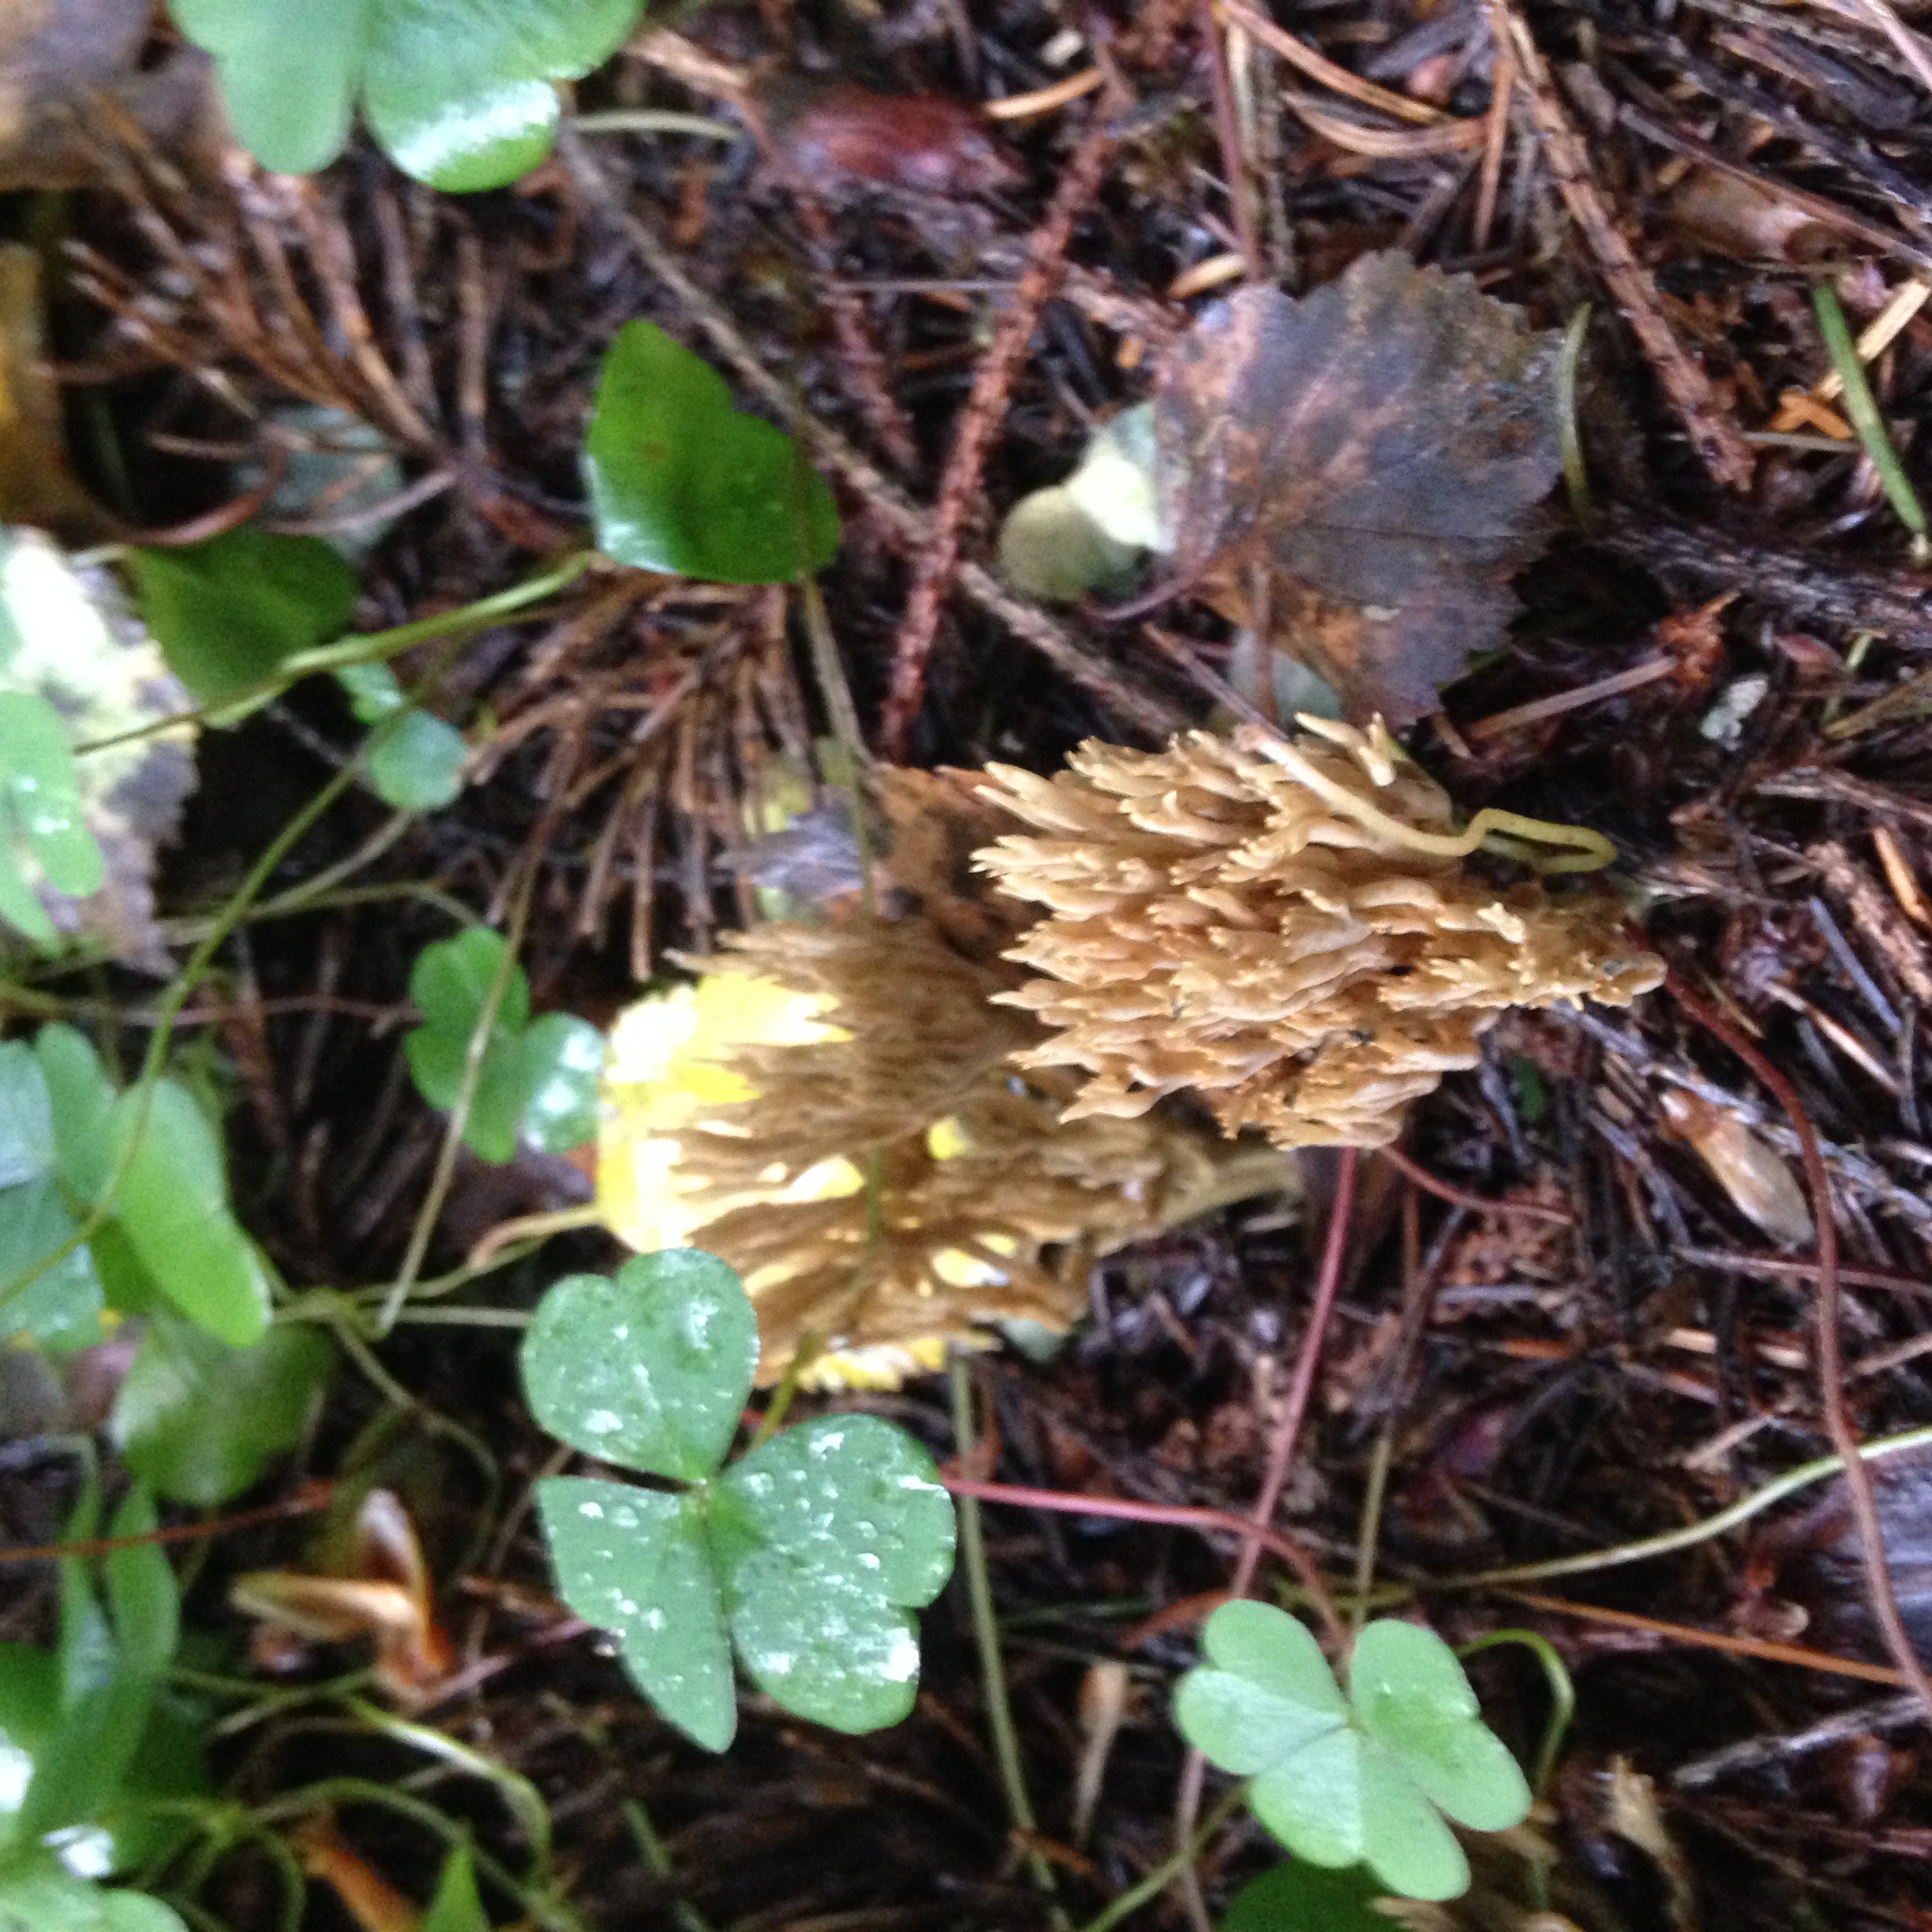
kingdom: Fungi
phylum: Basidiomycota
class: Agaricomycetes
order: Gomphales
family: Gomphaceae
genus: Phaeoclavulina
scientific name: Phaeoclavulina eumorpha
